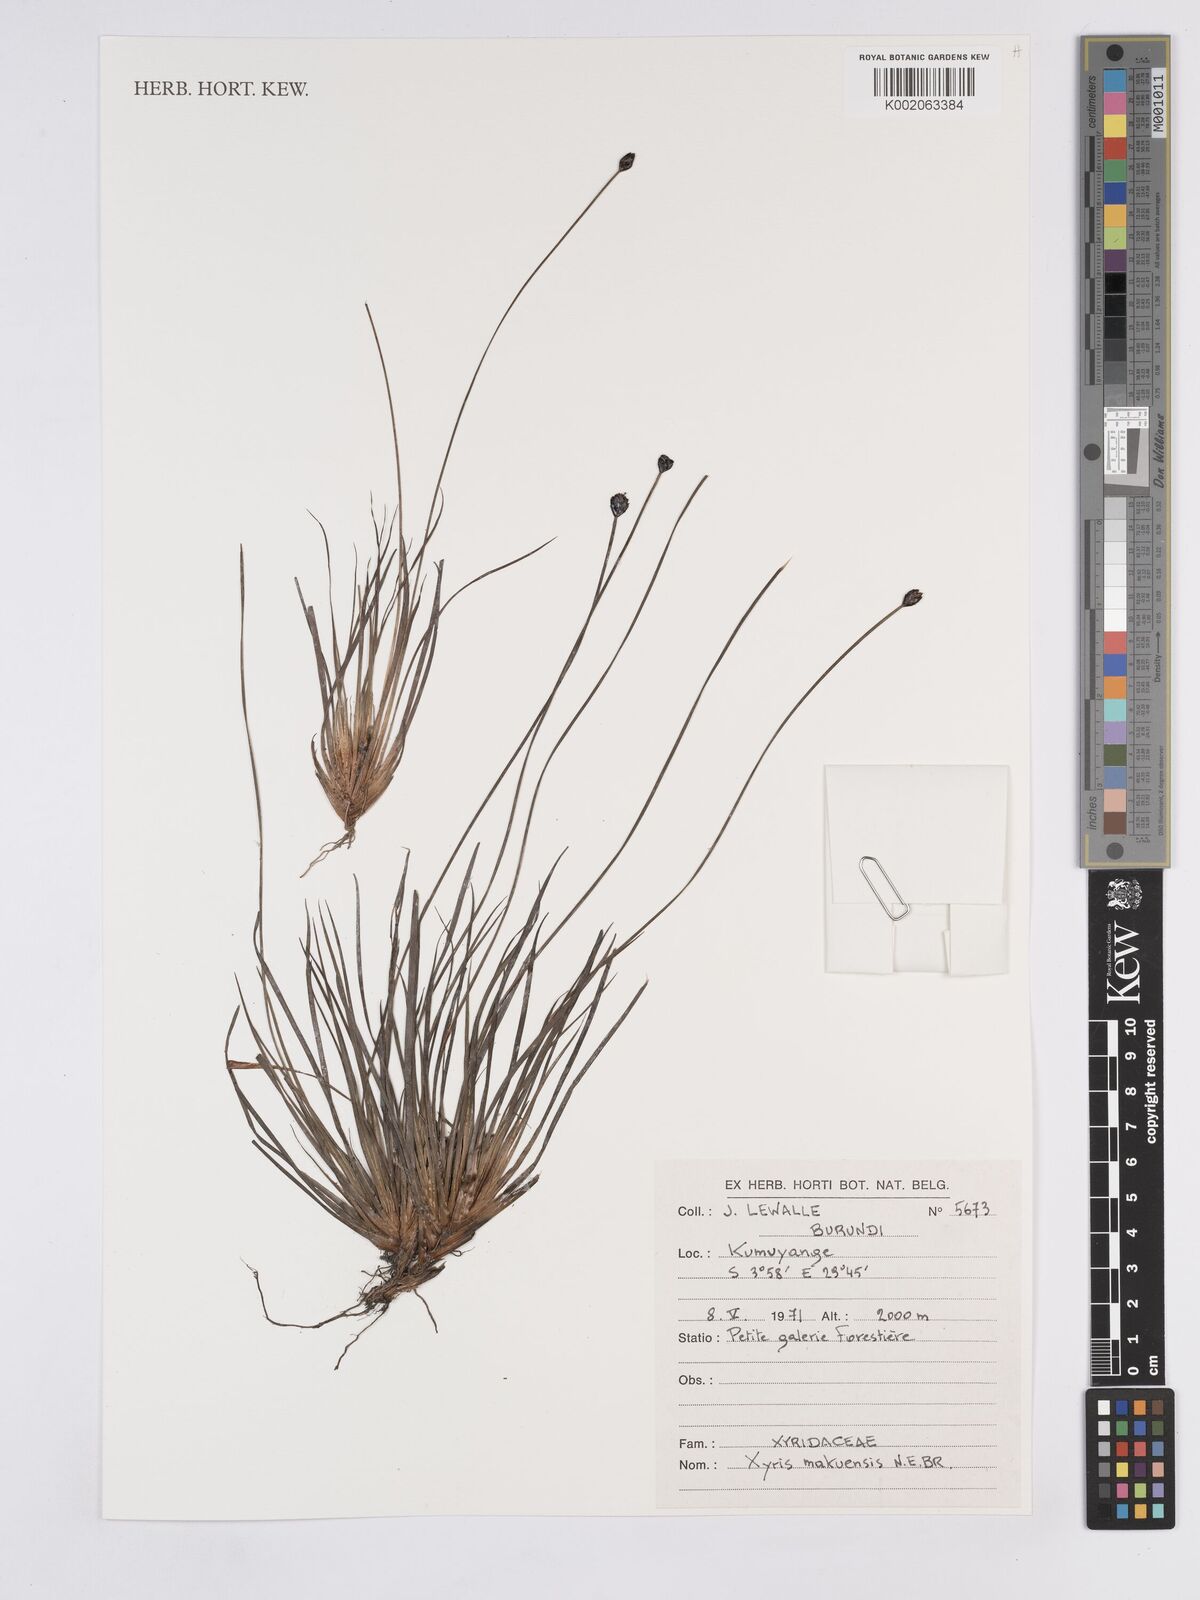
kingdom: Plantae
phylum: Tracheophyta
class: Liliopsida
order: Poales
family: Xyridaceae
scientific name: Xyridaceae
